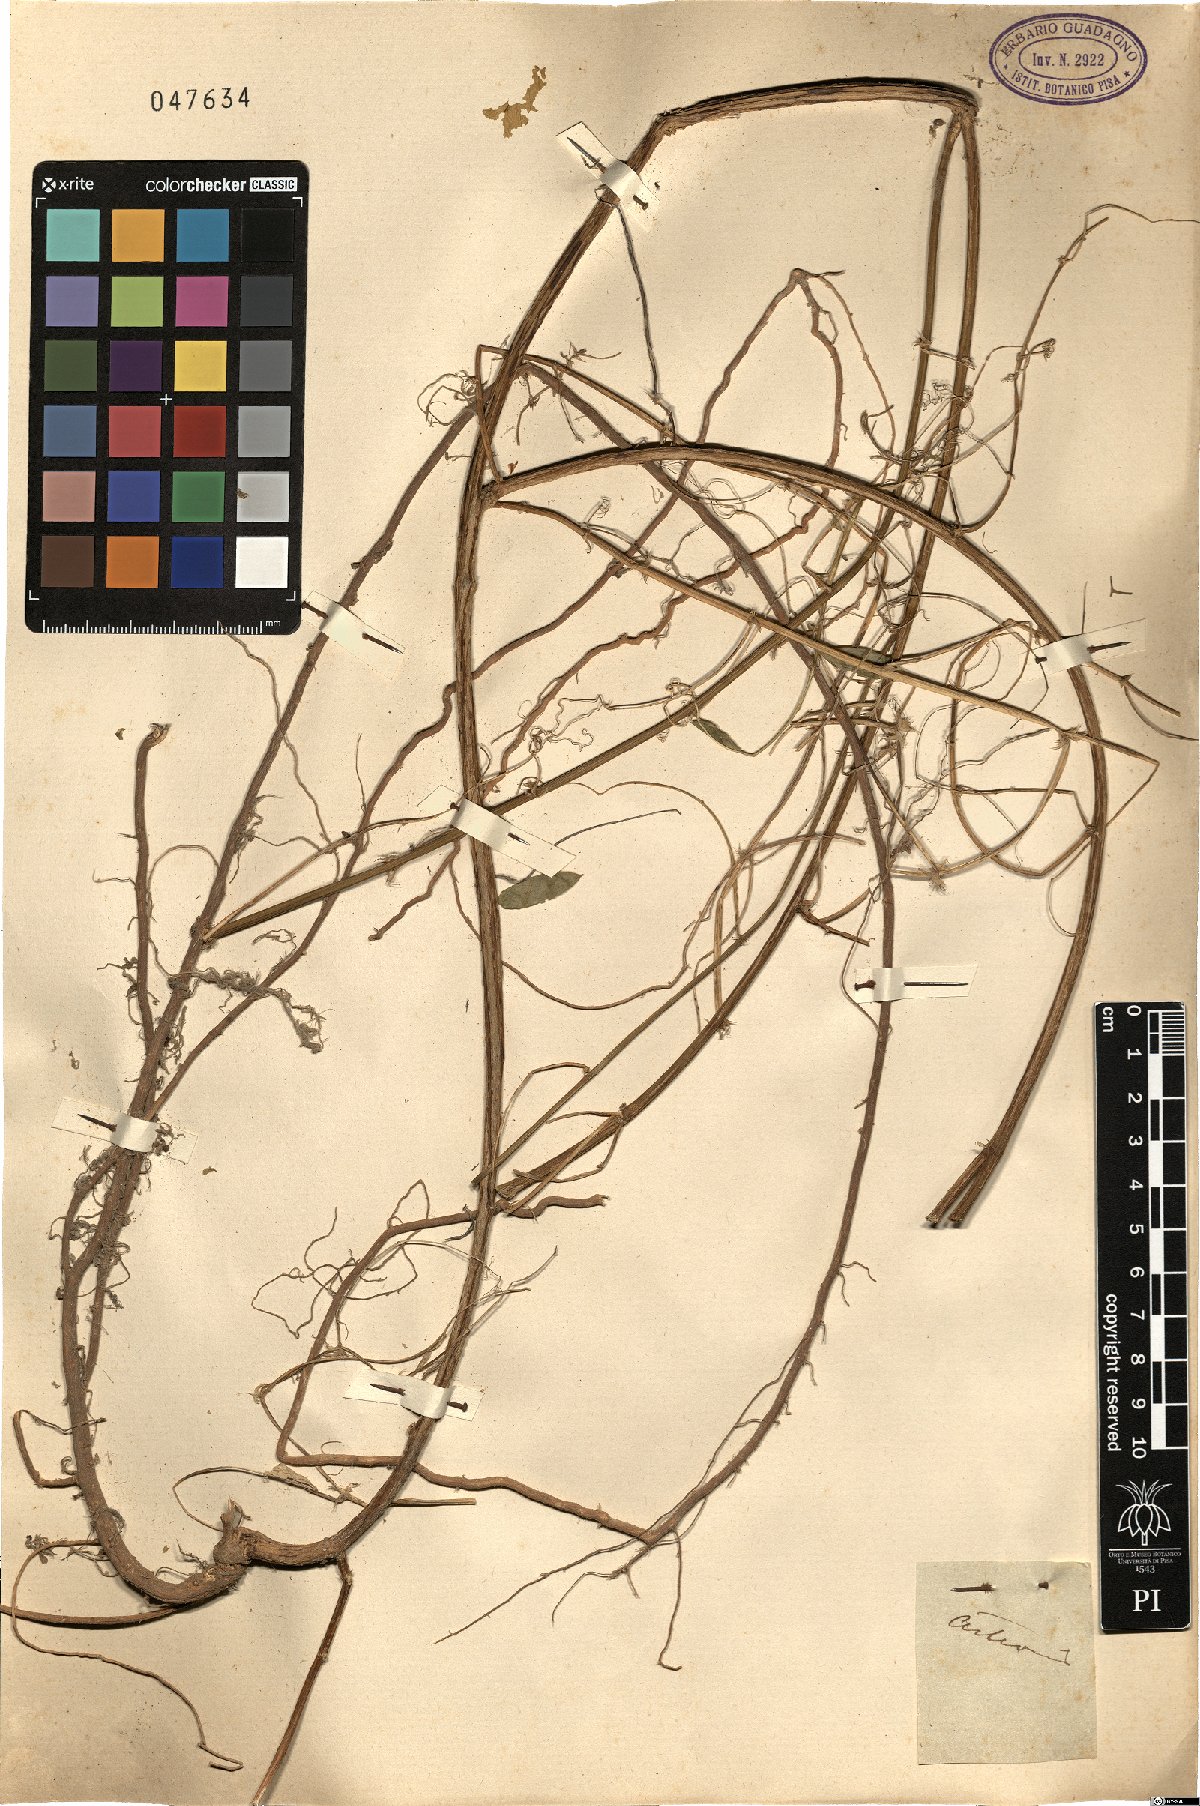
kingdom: Plantae
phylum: Tracheophyta
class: Magnoliopsida
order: Fabales
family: Fabaceae
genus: Vicia
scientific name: Vicia
